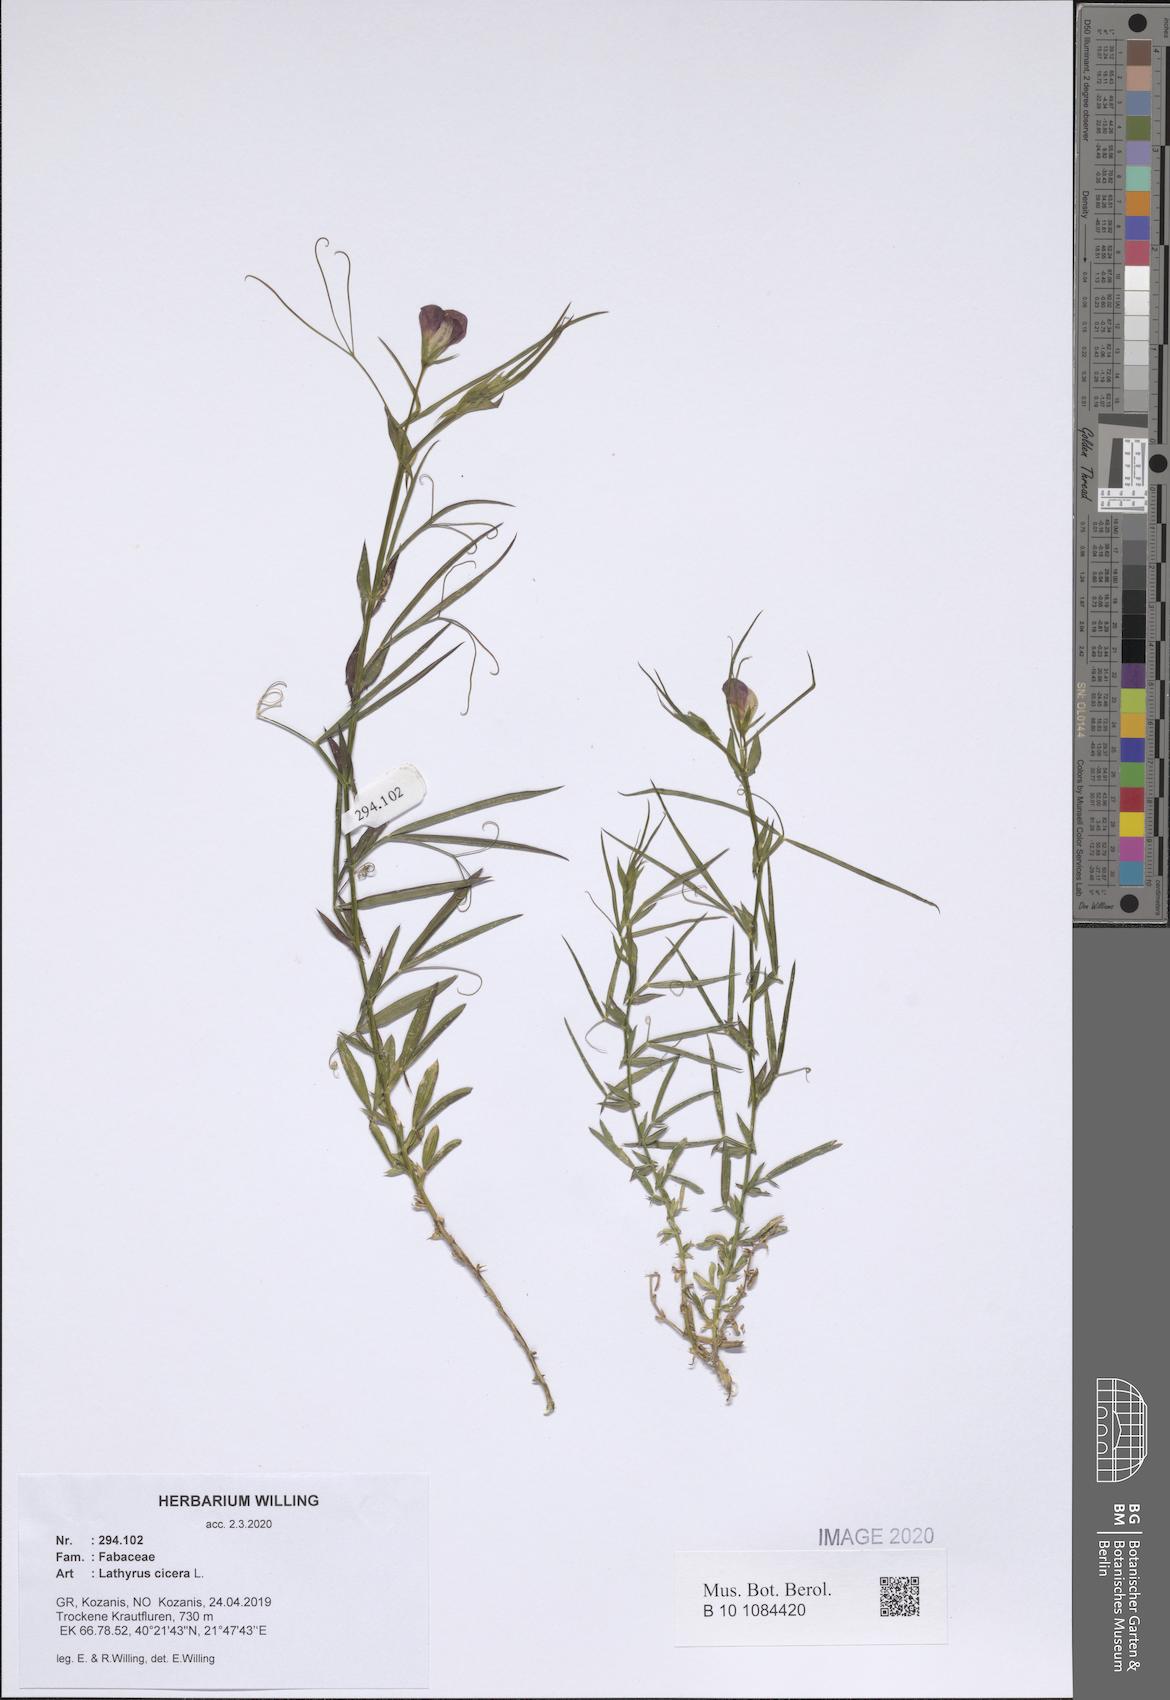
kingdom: Plantae
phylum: Tracheophyta
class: Magnoliopsida
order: Fabales
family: Fabaceae
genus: Lathyrus
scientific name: Lathyrus cicera
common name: Red vetchling
